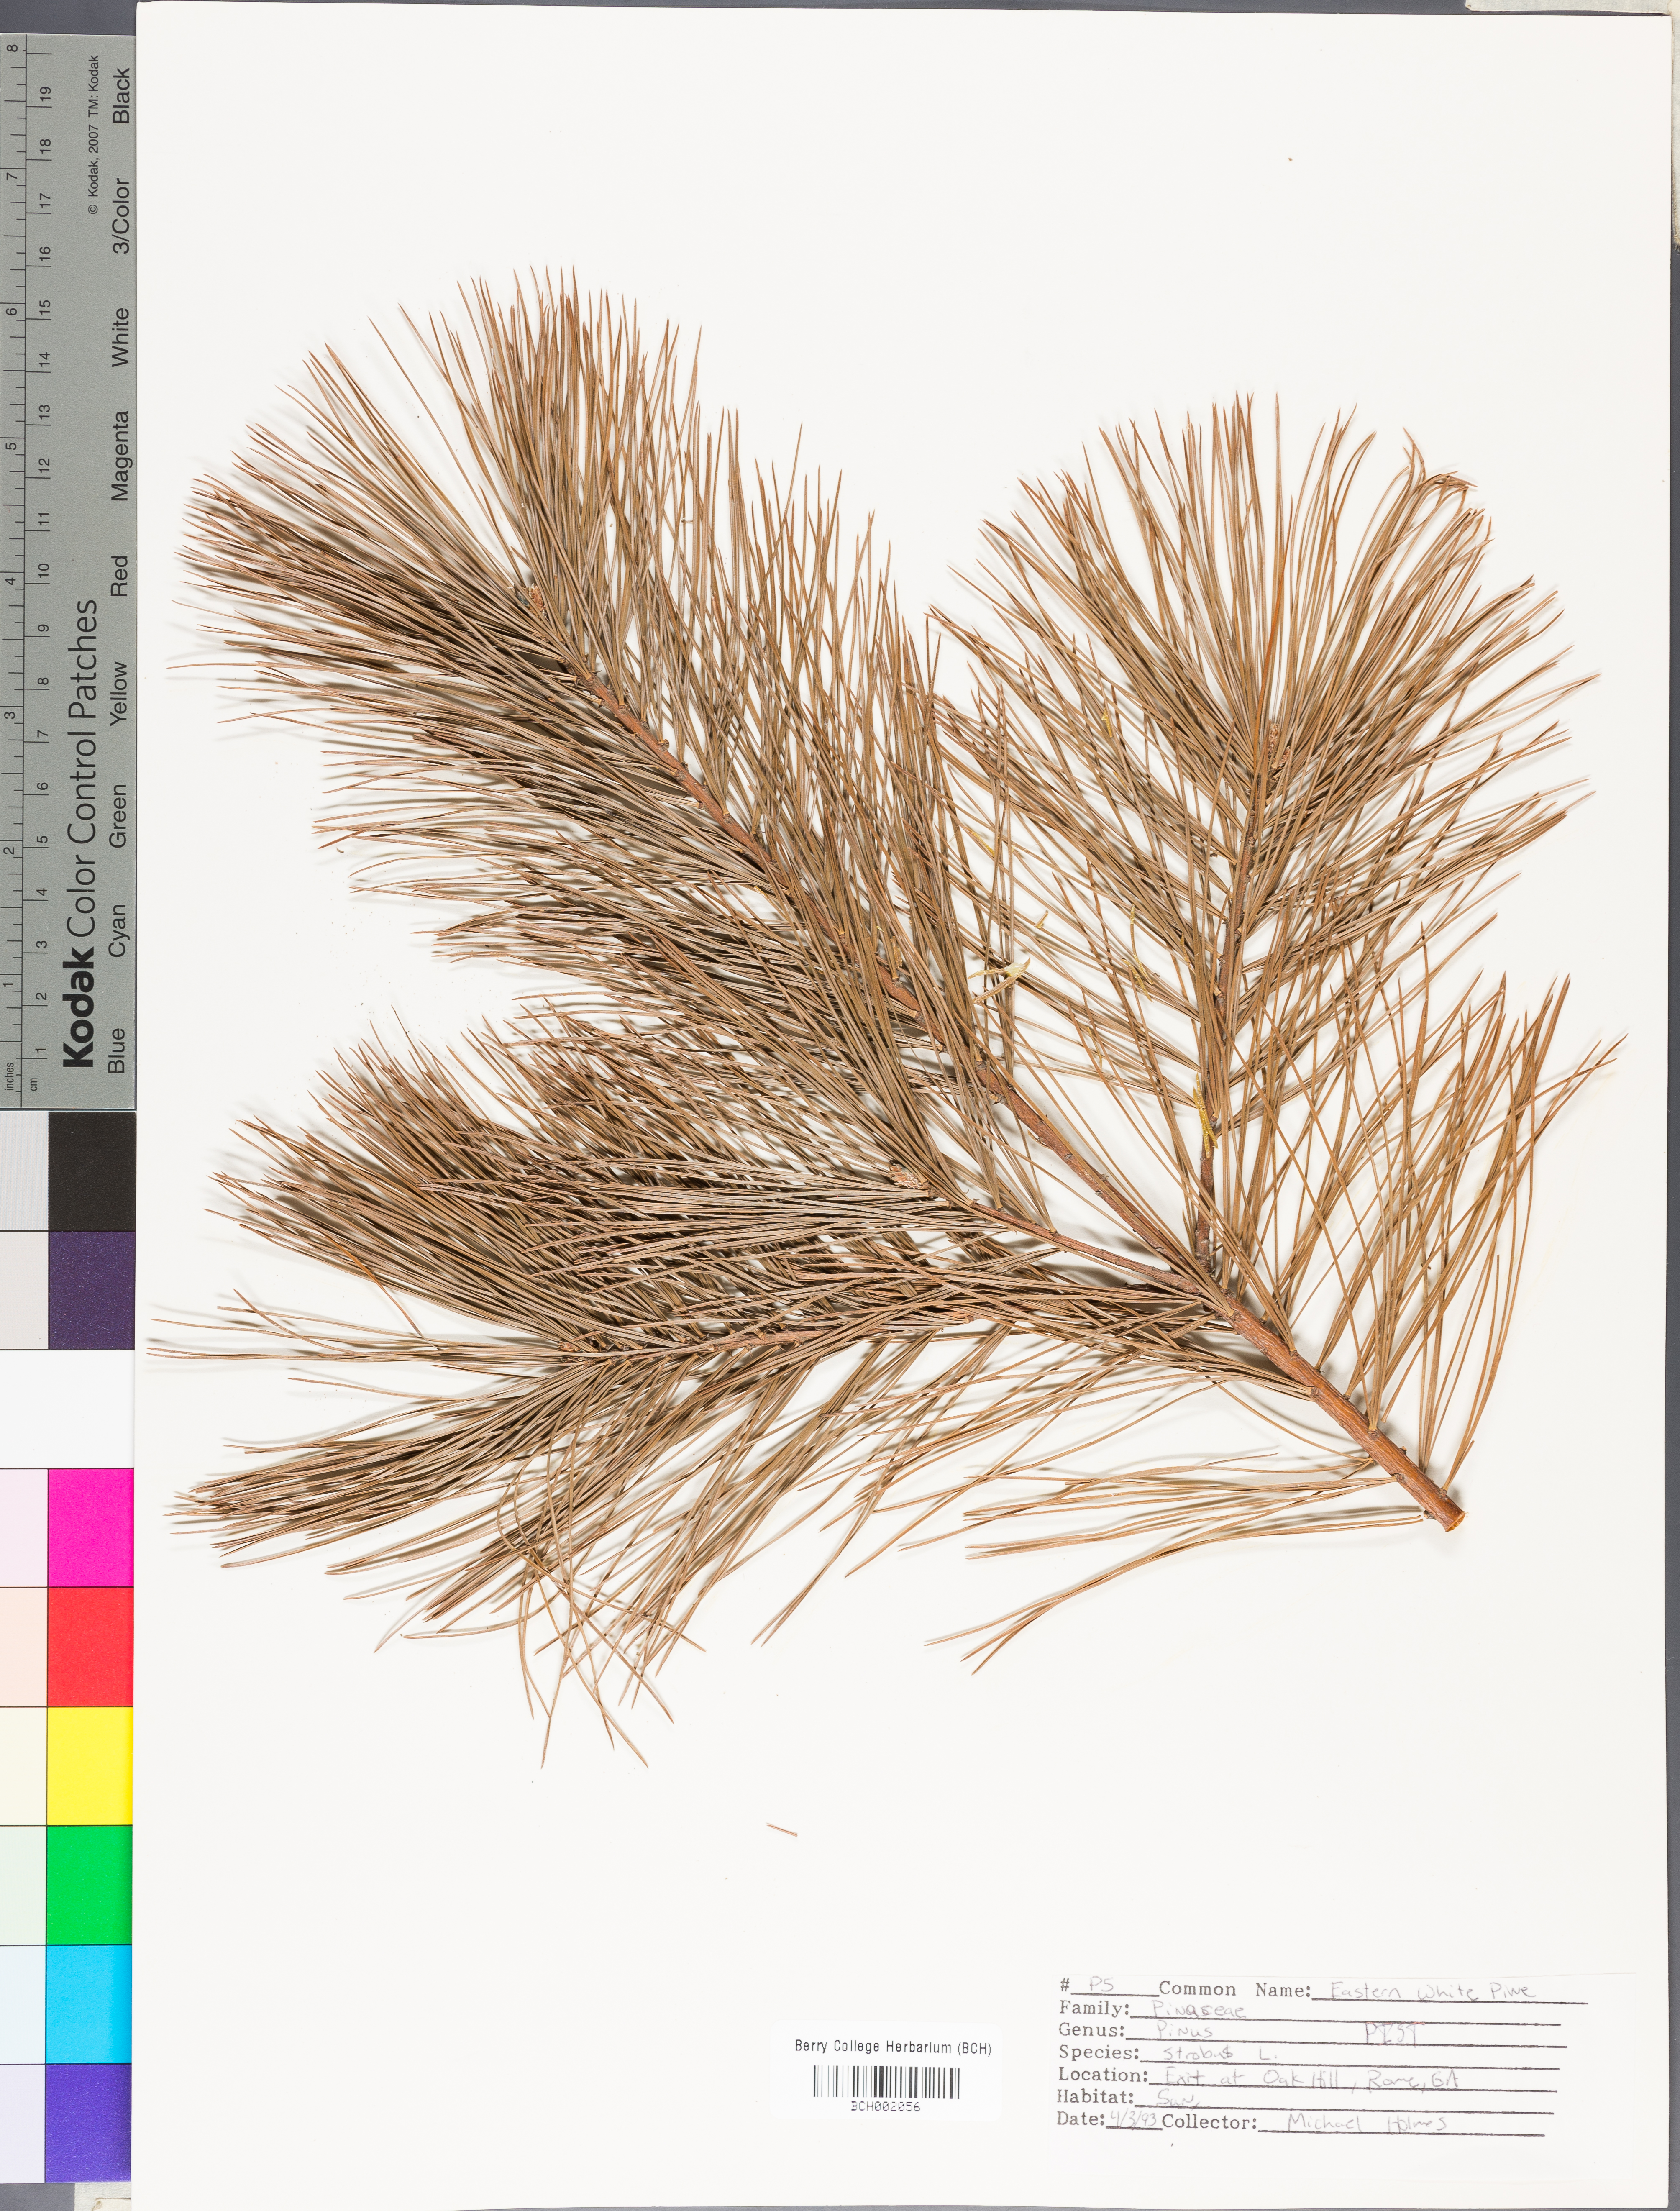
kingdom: Plantae
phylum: Tracheophyta
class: Pinopsida
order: Pinales
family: Pinaceae
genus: Pinus
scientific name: Pinus strobus
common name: Weymouth pine
